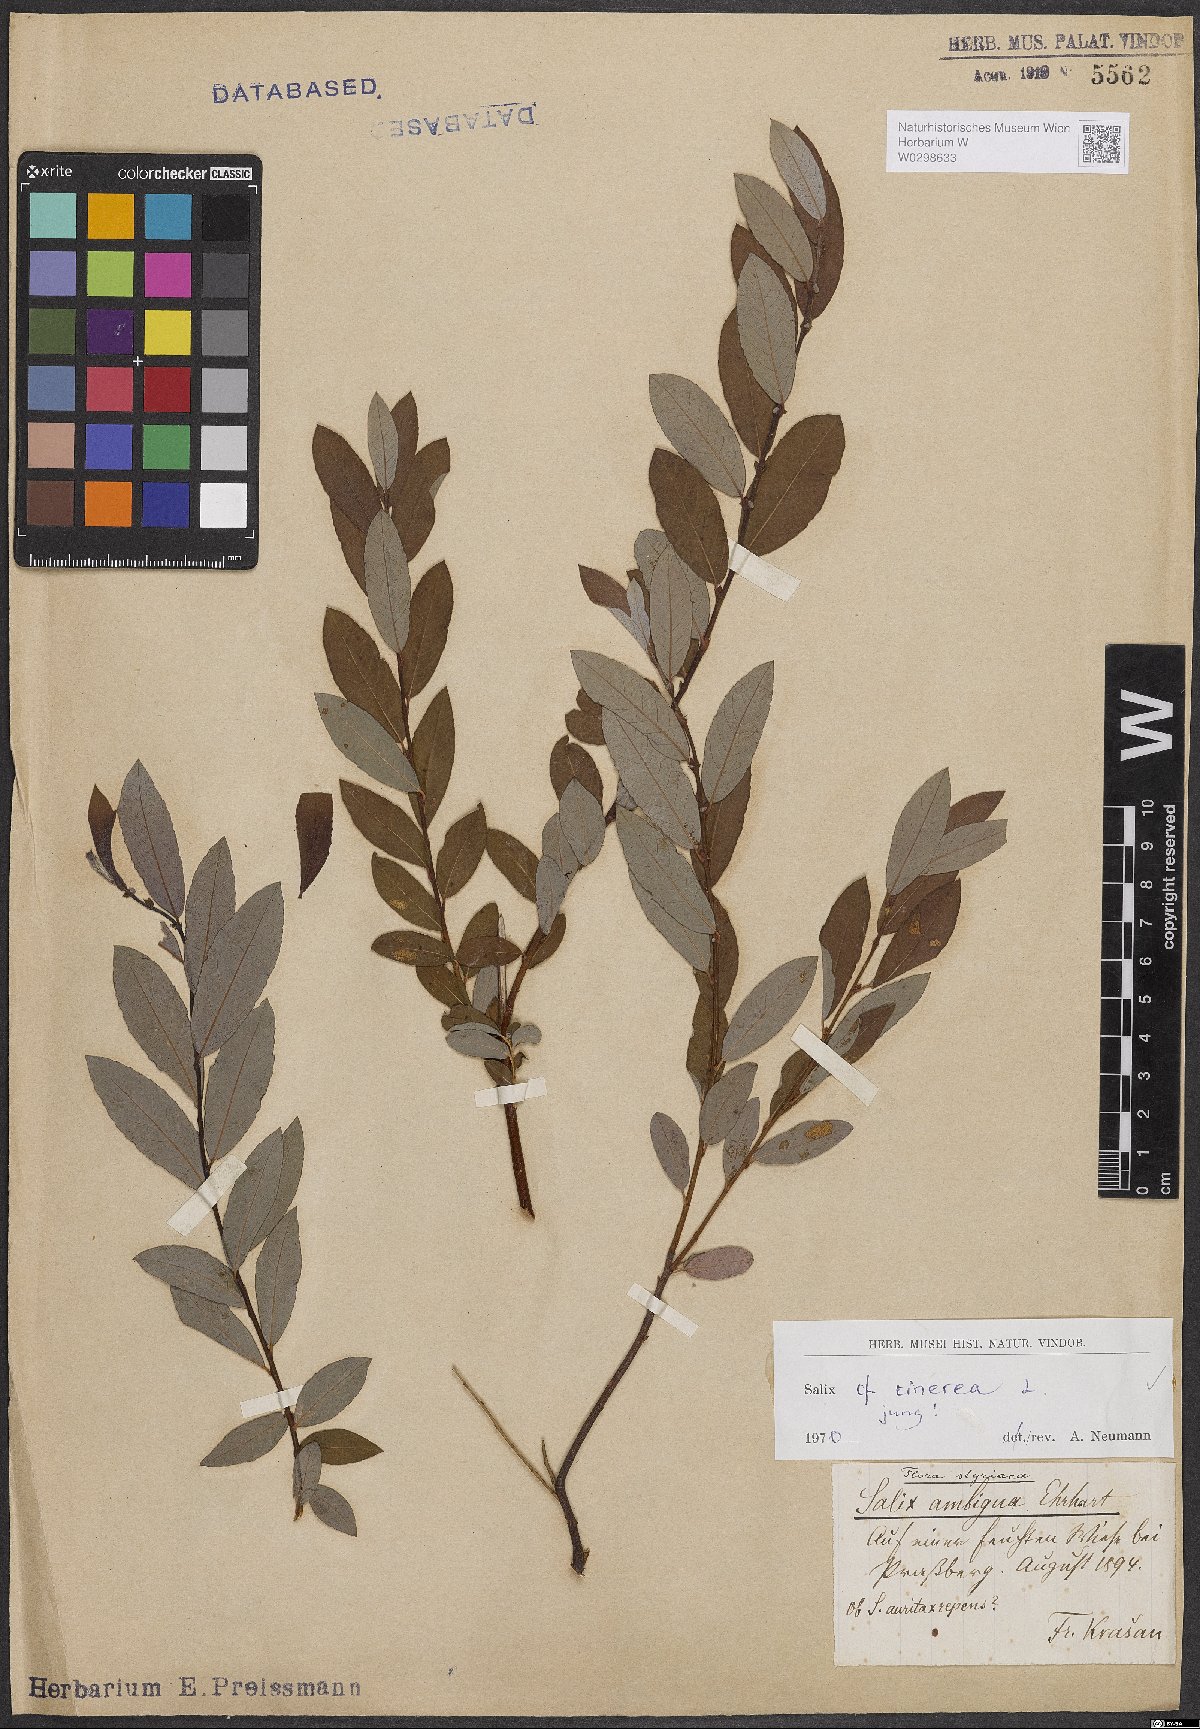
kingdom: Plantae
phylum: Tracheophyta
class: Magnoliopsida
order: Malpighiales
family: Salicaceae
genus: Salix
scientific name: Salix cinerea
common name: Common sallow
